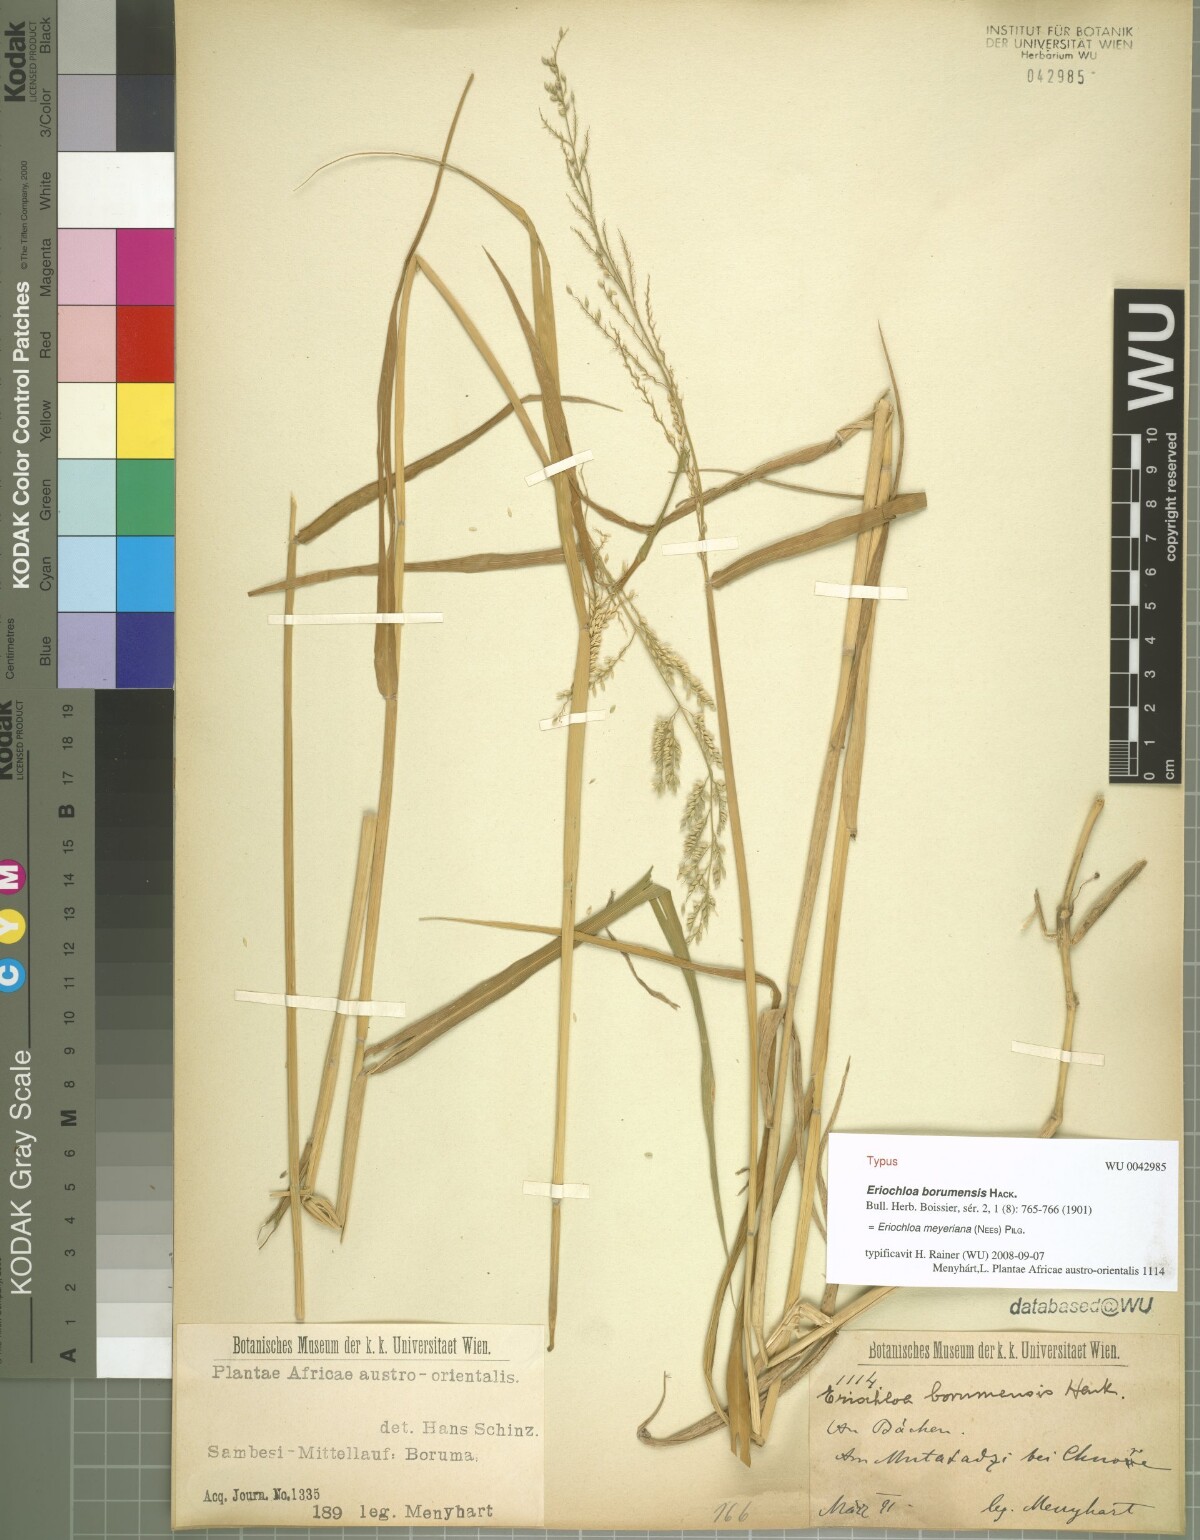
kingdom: Plantae
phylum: Tracheophyta
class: Liliopsida
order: Poales
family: Poaceae
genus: Eriochloa
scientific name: Eriochloa meyeriana
